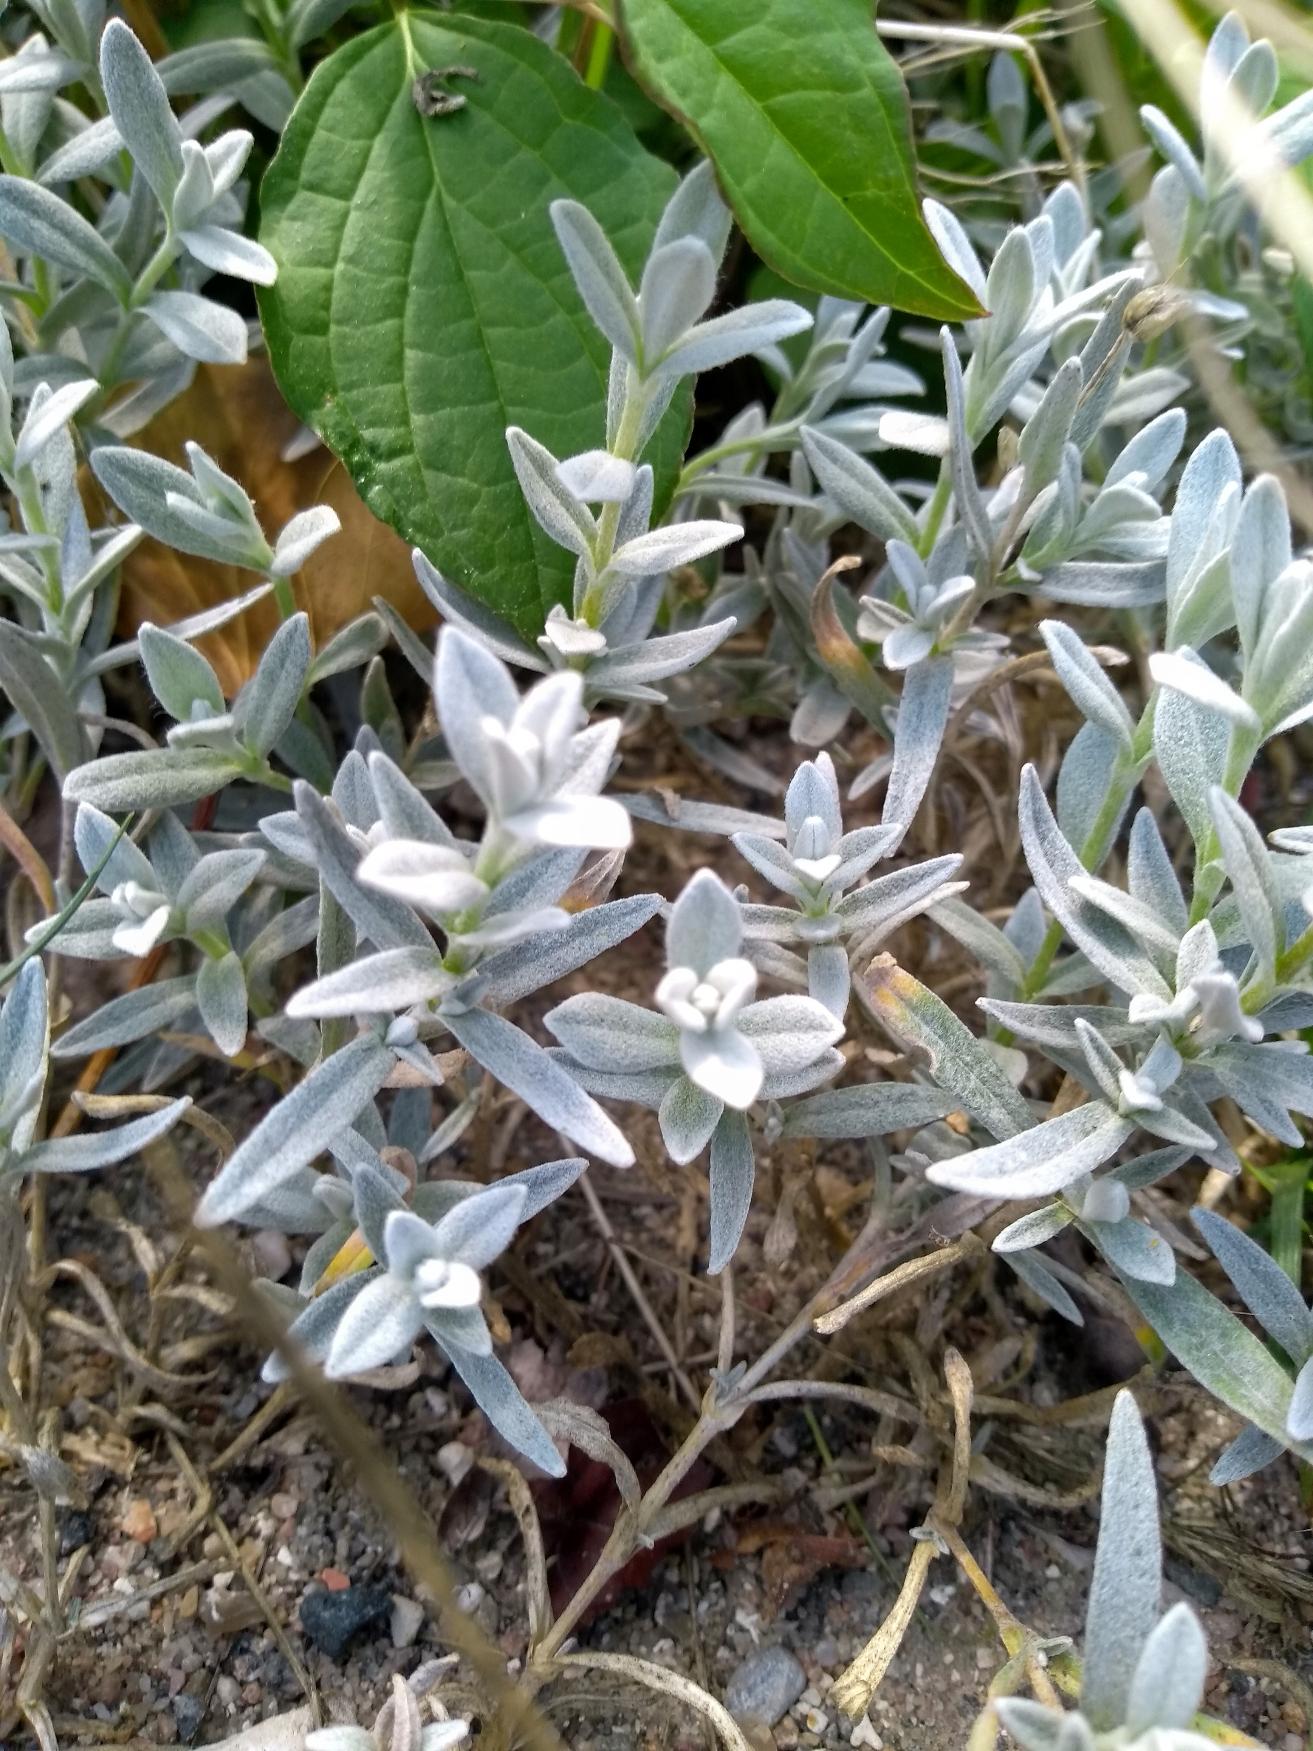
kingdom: Plantae
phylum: Tracheophyta
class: Magnoliopsida
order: Caryophyllales
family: Caryophyllaceae
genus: Cerastium
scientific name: Cerastium tomentosum
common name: Filtet hønsetarm
